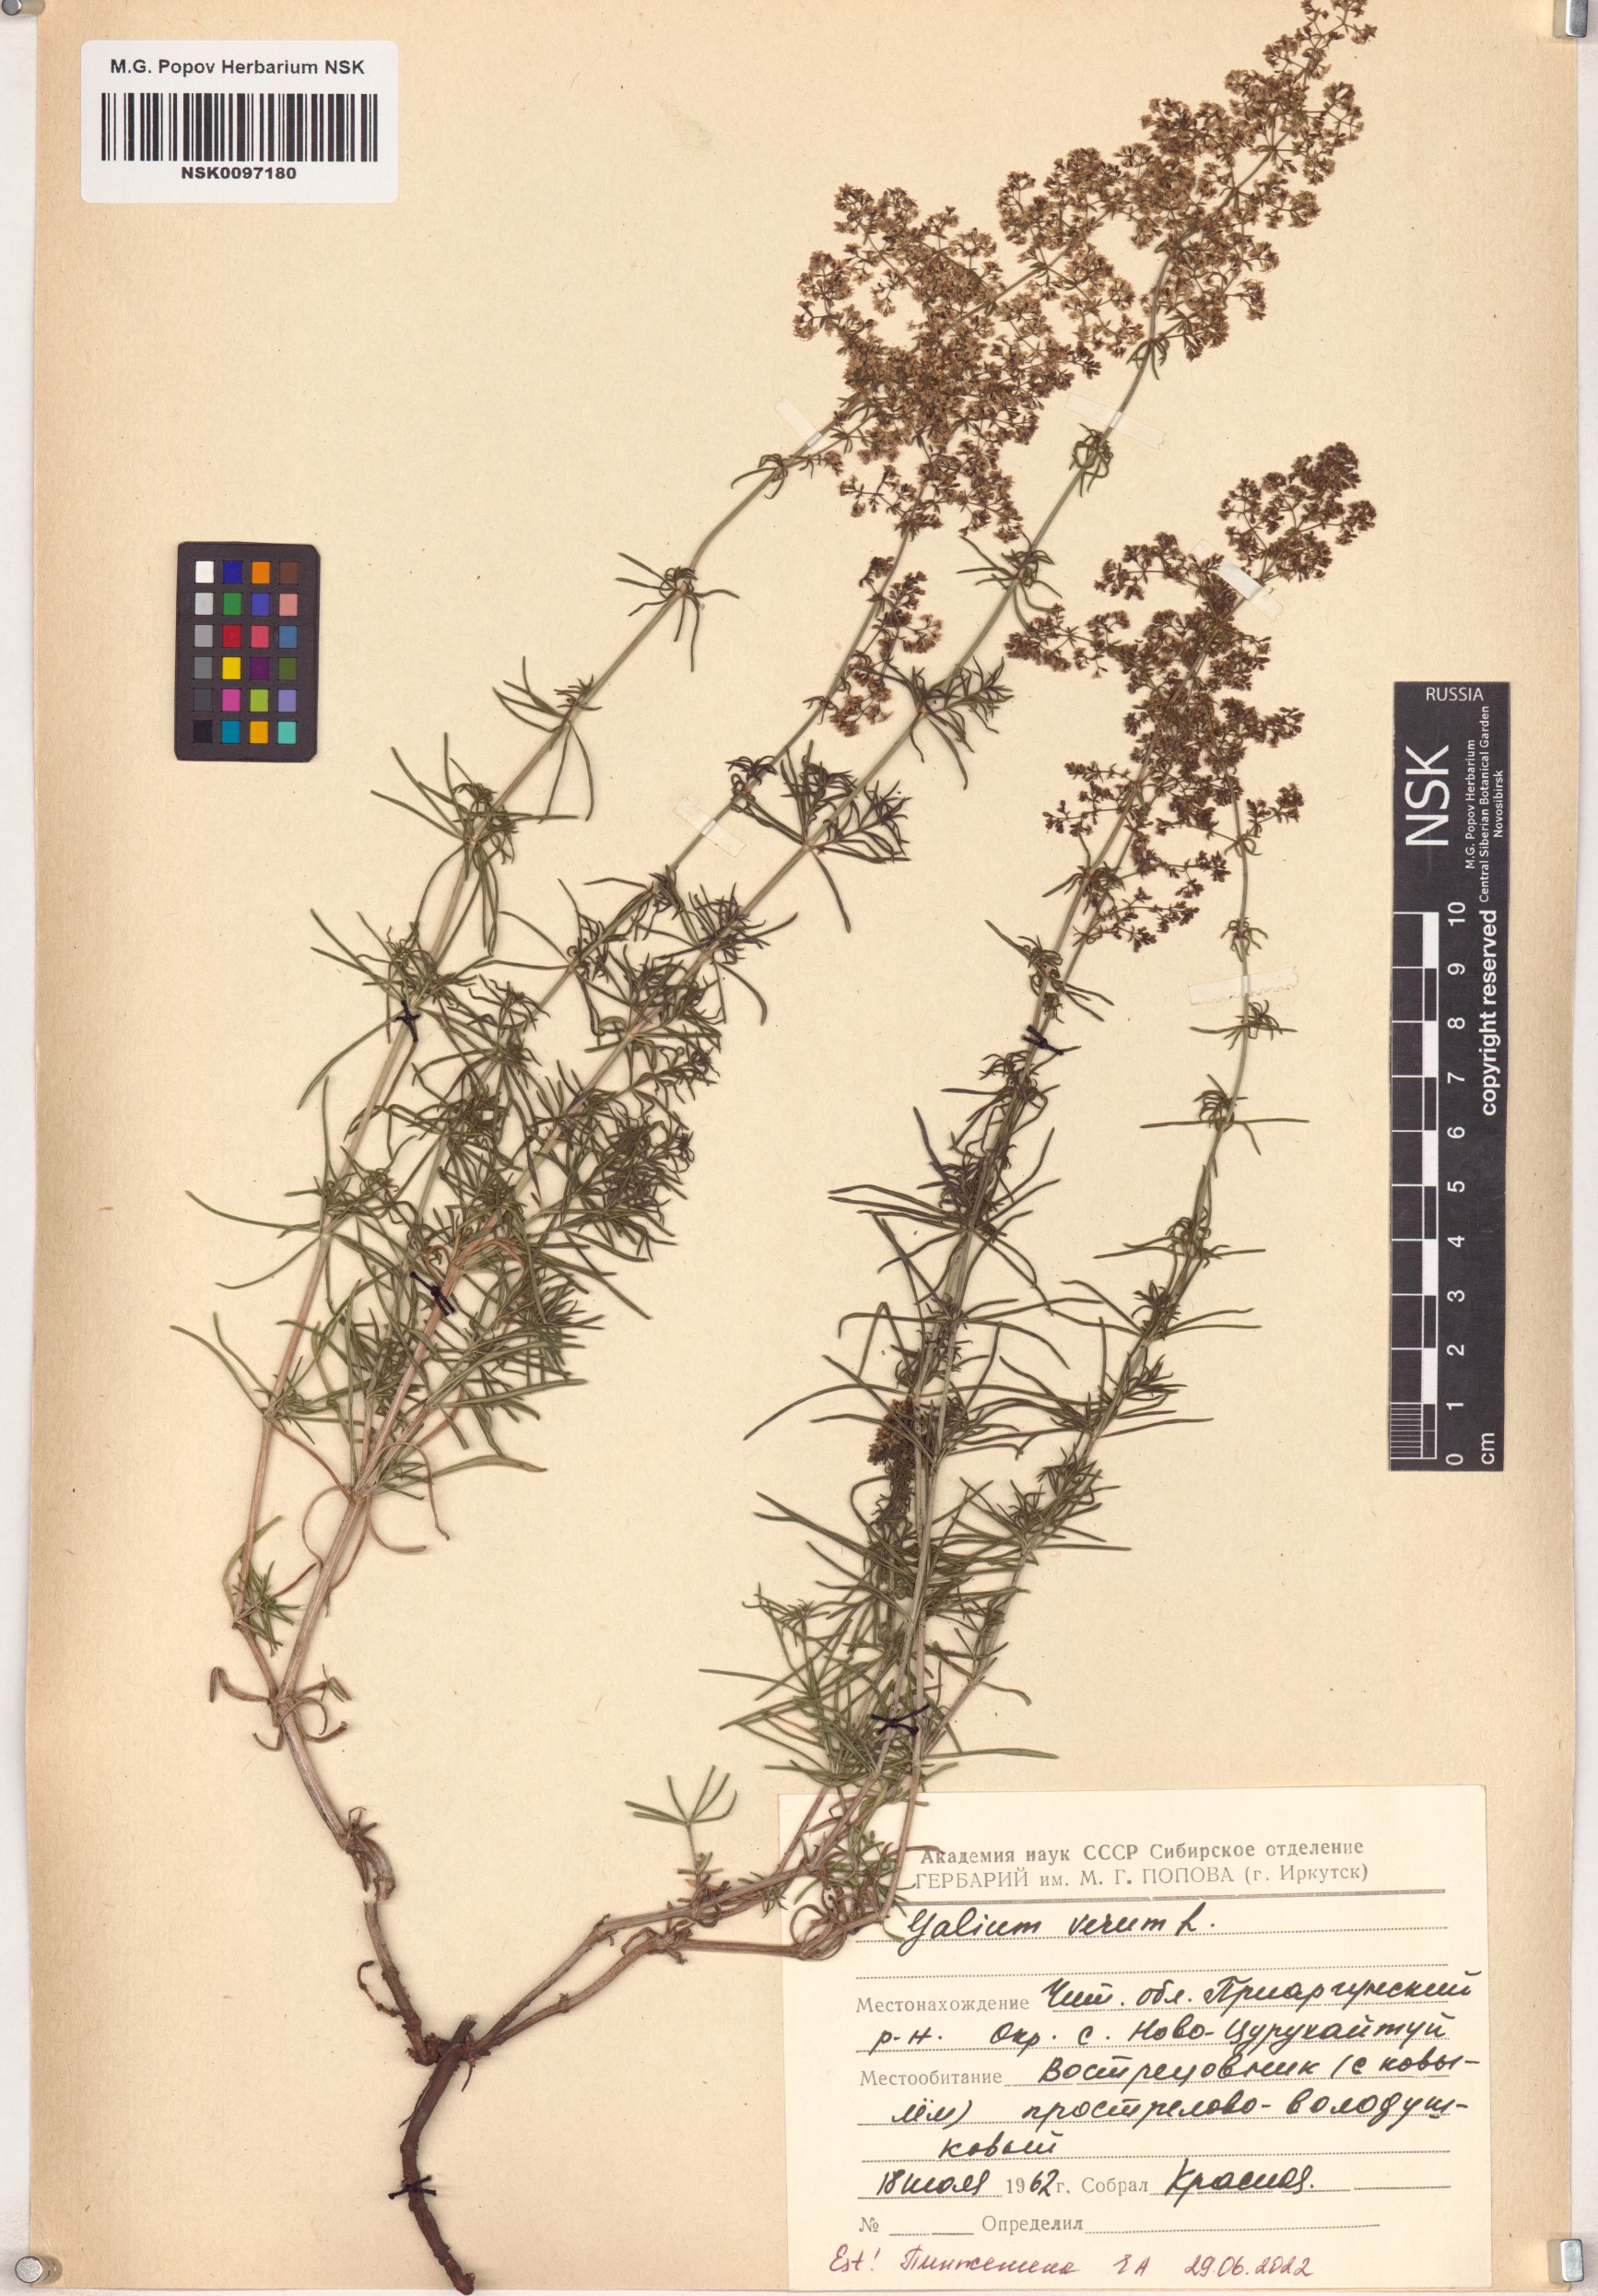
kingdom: Plantae
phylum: Tracheophyta
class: Magnoliopsida
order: Gentianales
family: Rubiaceae
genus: Galium
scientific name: Galium verum
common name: Lady's bedstraw
